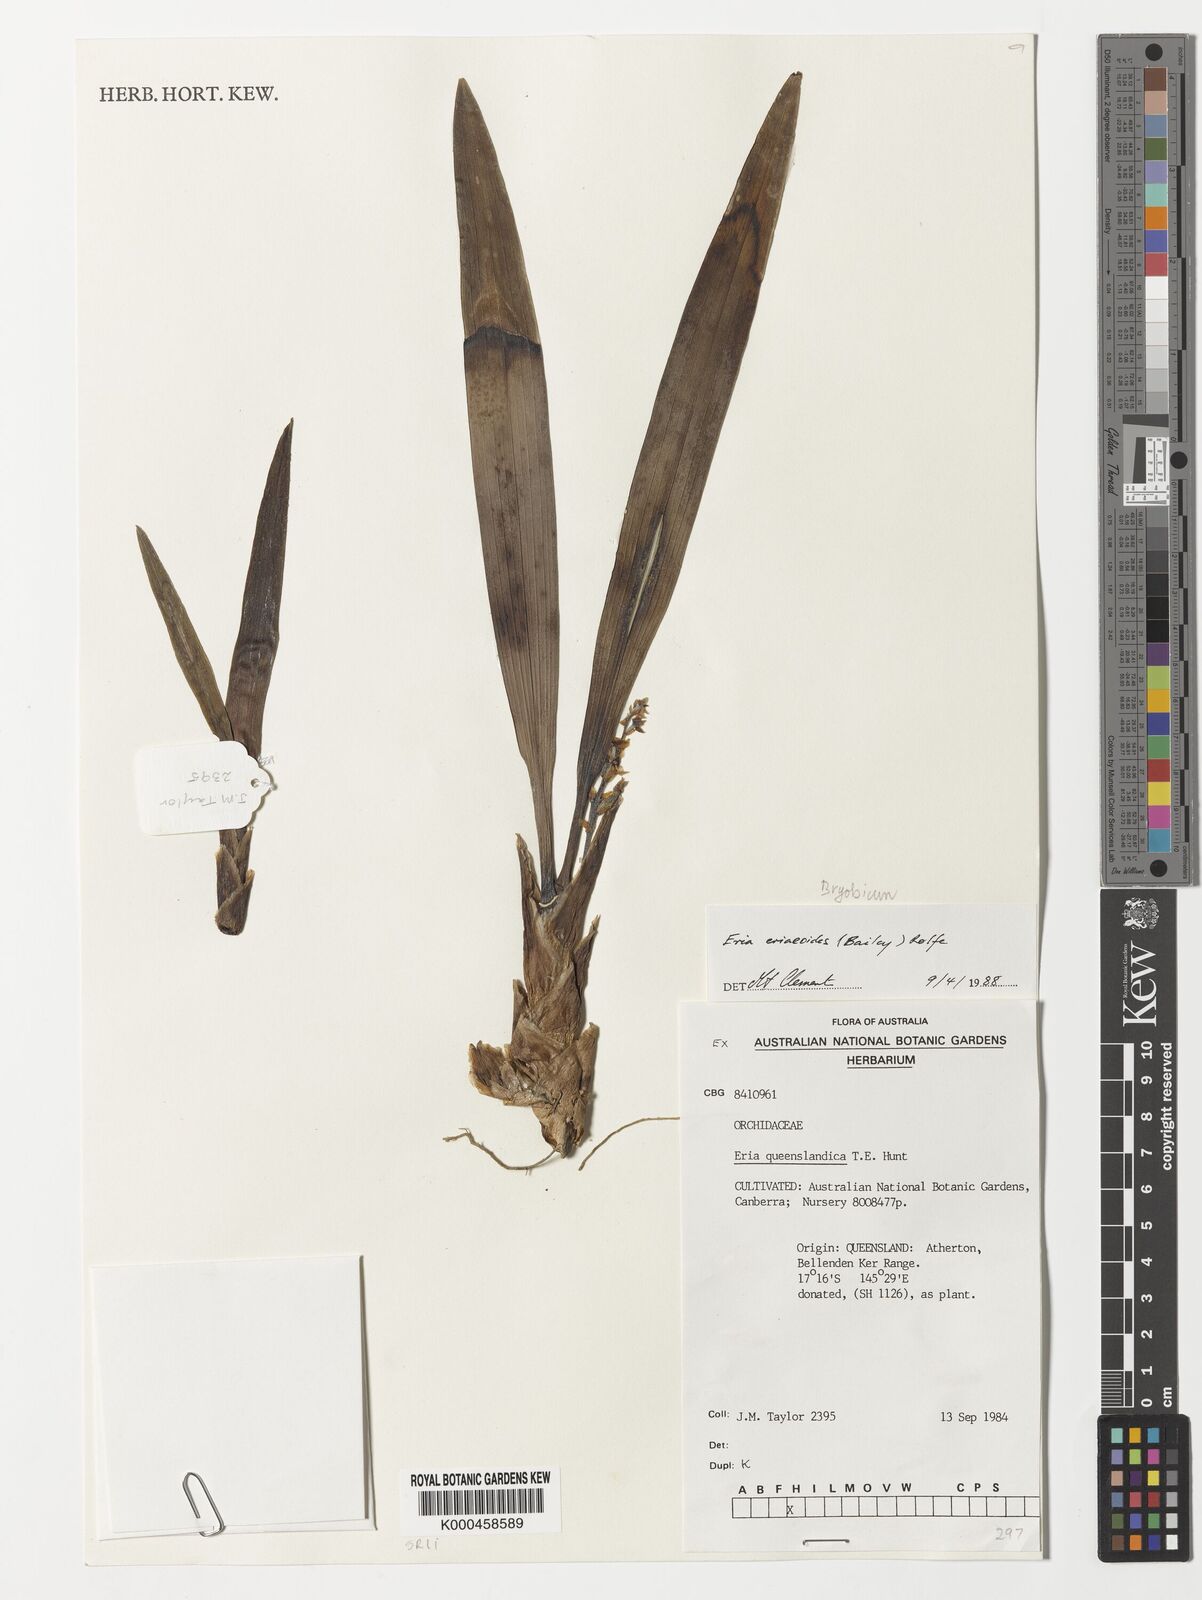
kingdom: Plantae
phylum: Tracheophyta
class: Liliopsida
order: Asparagales
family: Orchidaceae
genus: Bryobium
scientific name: Bryobium eriaeoides
